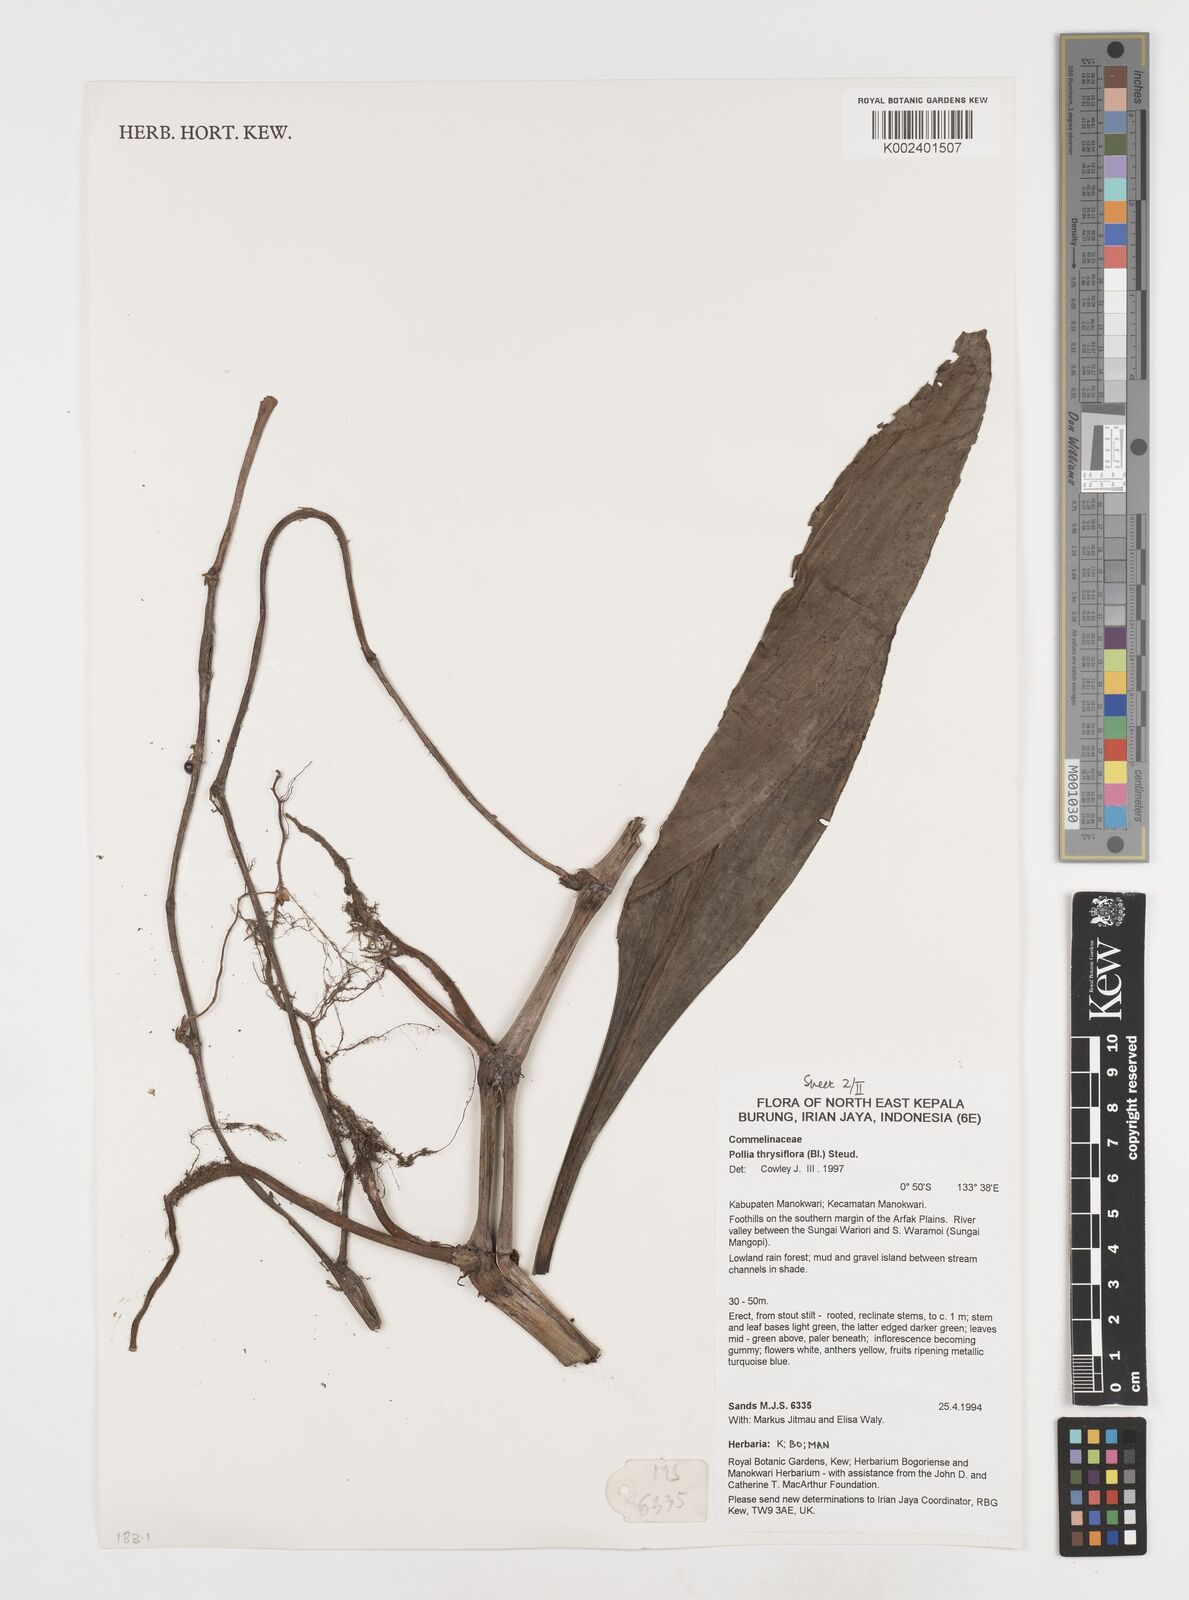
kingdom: Plantae
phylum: Tracheophyta
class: Liliopsida
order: Commelinales
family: Commelinaceae
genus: Pollia
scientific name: Pollia thyrsiflora
